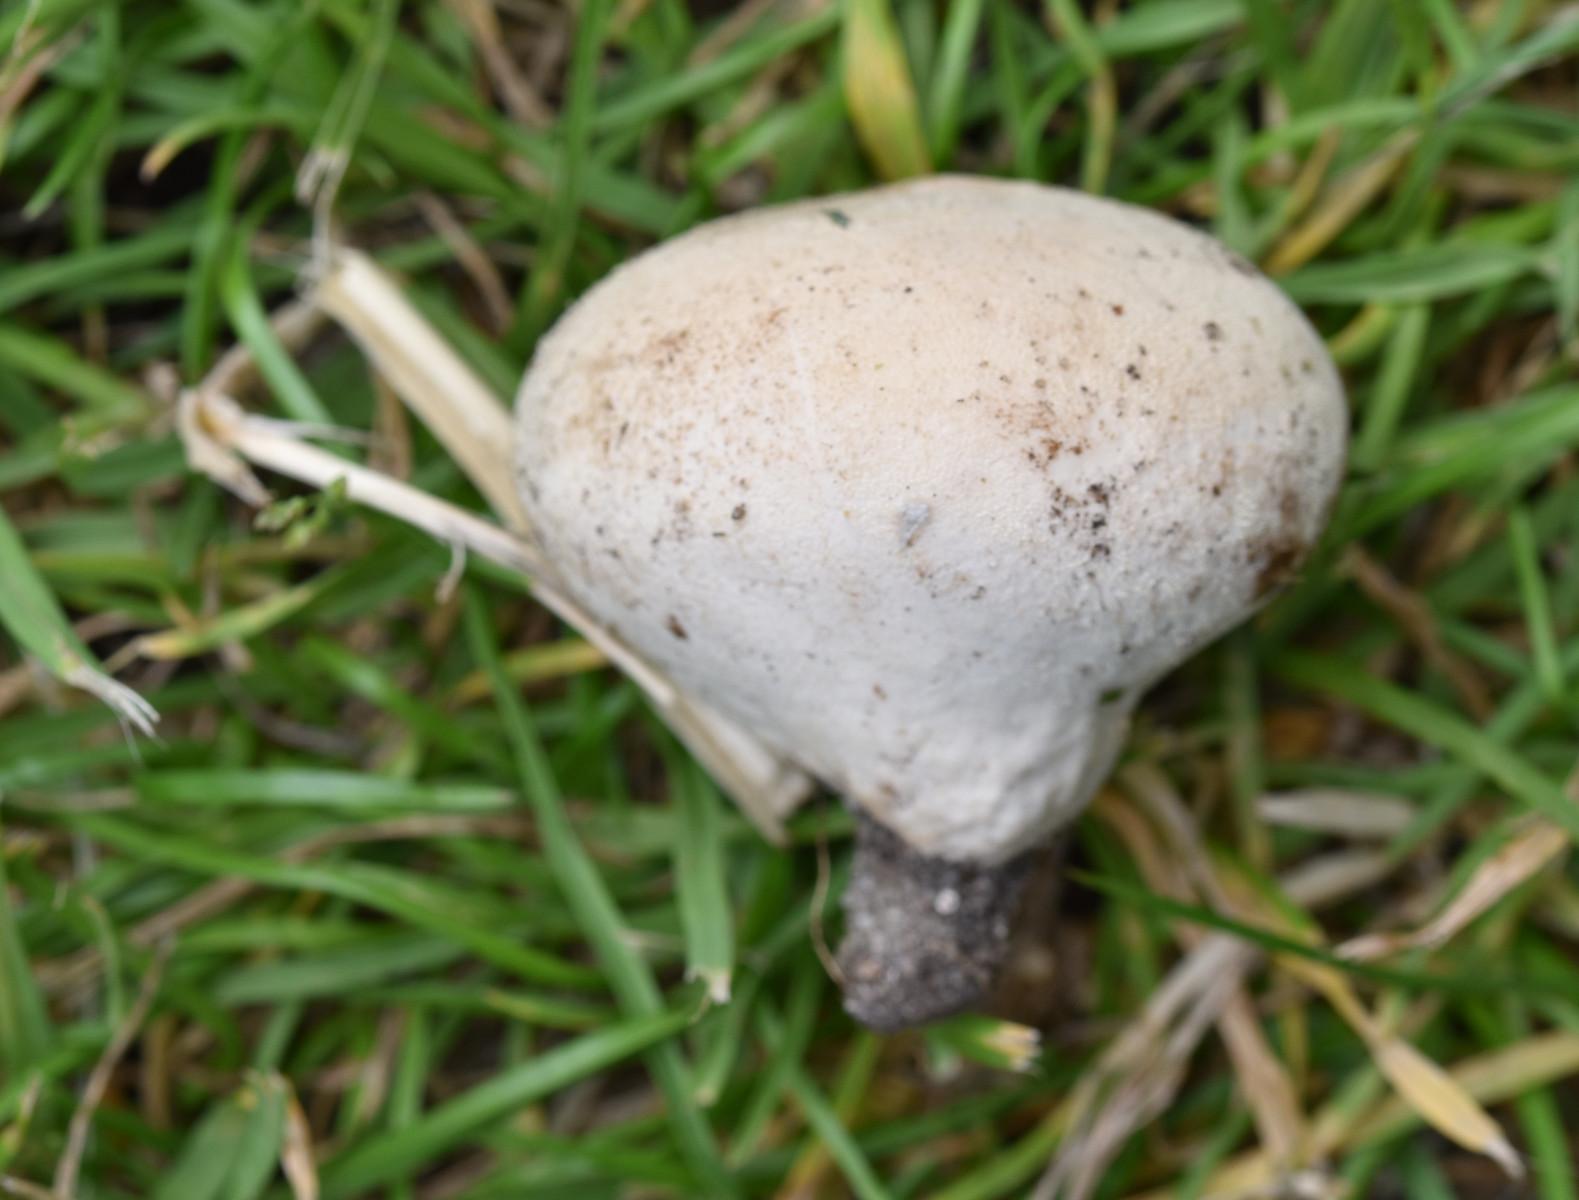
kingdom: Fungi
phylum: Basidiomycota
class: Agaricomycetes
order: Agaricales
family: Lycoperdaceae
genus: Lycoperdon
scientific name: Lycoperdon pratense
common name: flad støvbold
